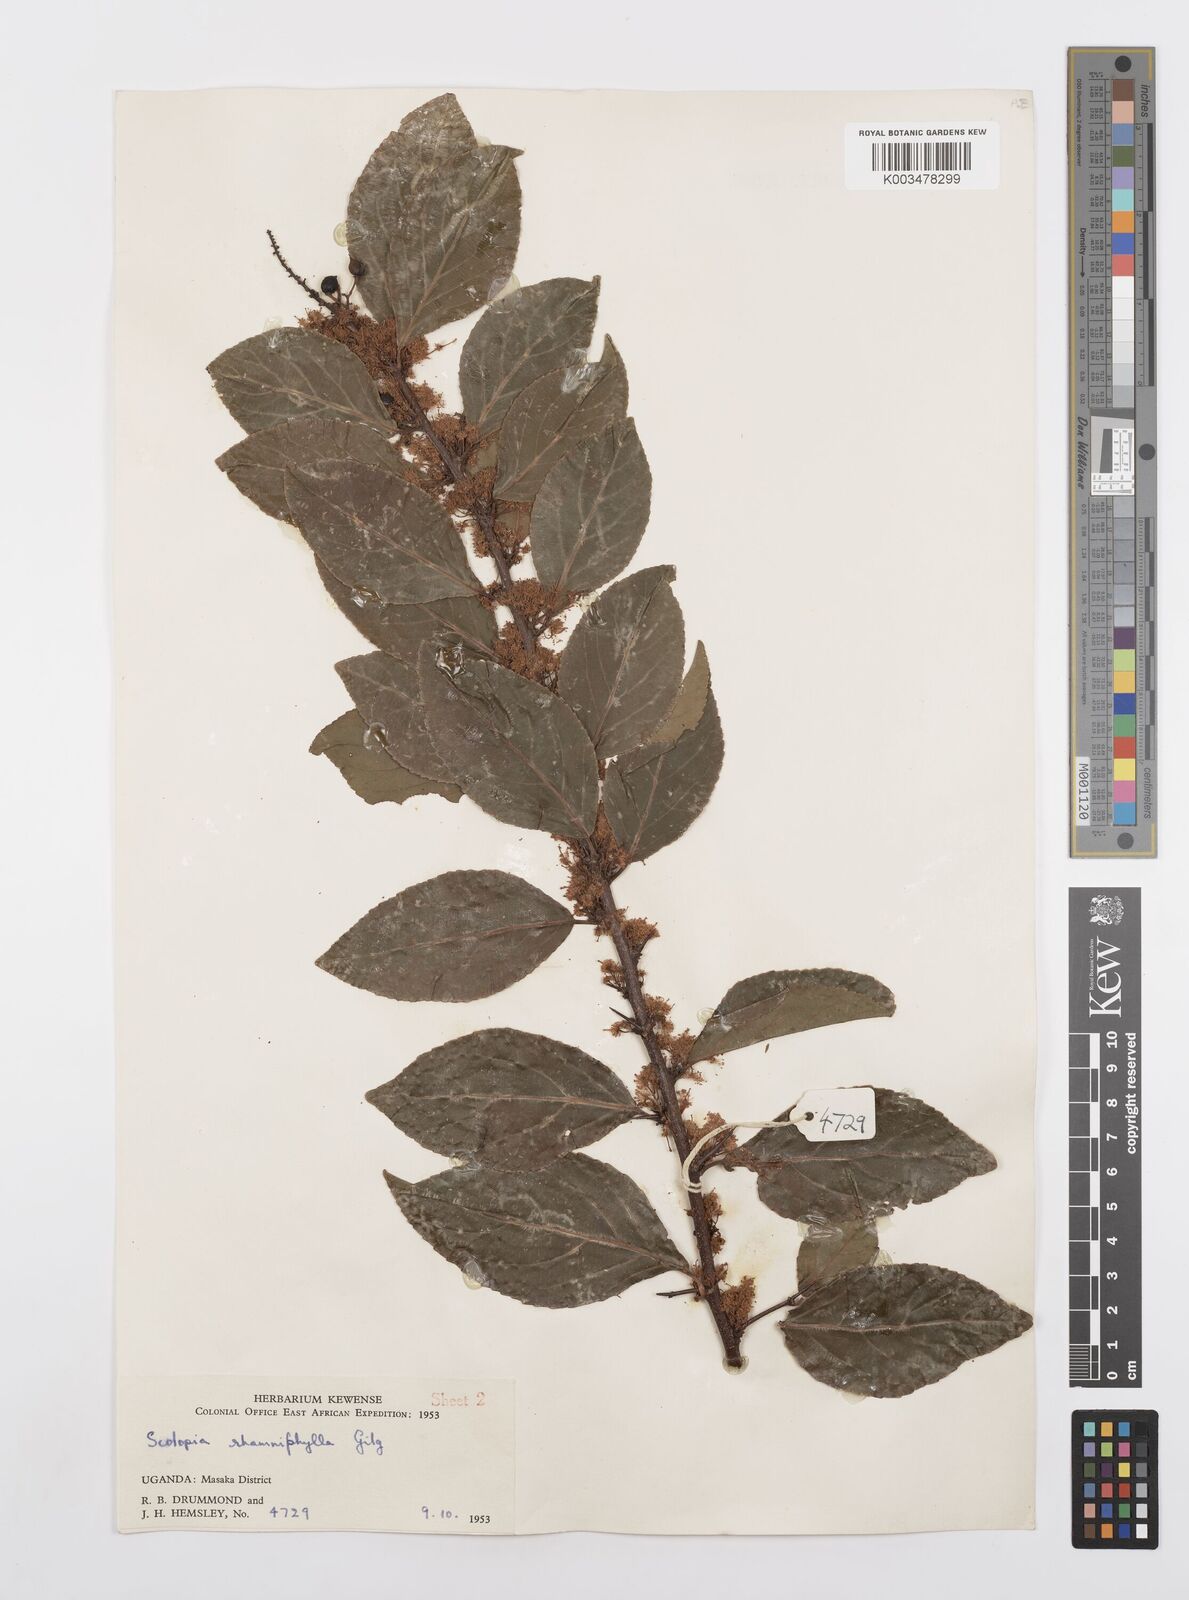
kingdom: Plantae
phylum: Tracheophyta
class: Magnoliopsida
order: Malpighiales
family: Salicaceae
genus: Scolopia
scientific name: Scolopia rhamniphylla
